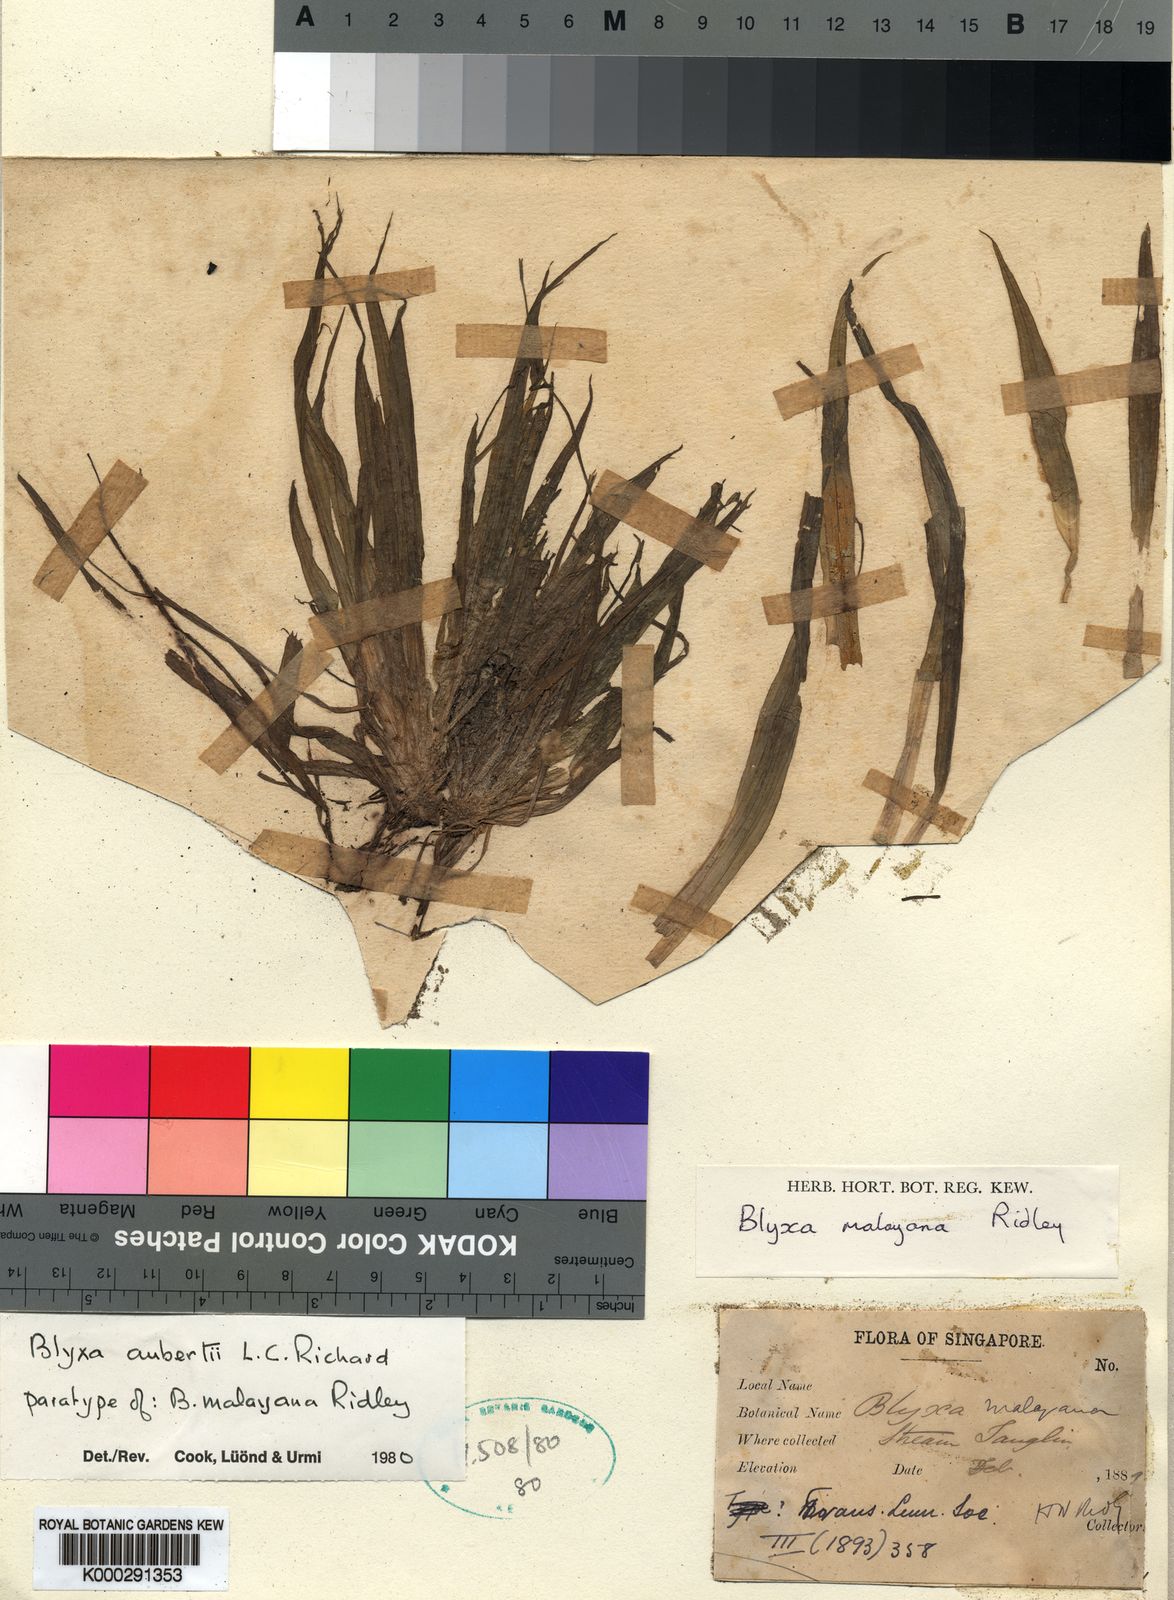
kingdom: Plantae
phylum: Tracheophyta
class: Liliopsida
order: Alismatales
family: Hydrocharitaceae
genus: Blyxa
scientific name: Blyxa aubertii
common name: Roundfruit blyxa
